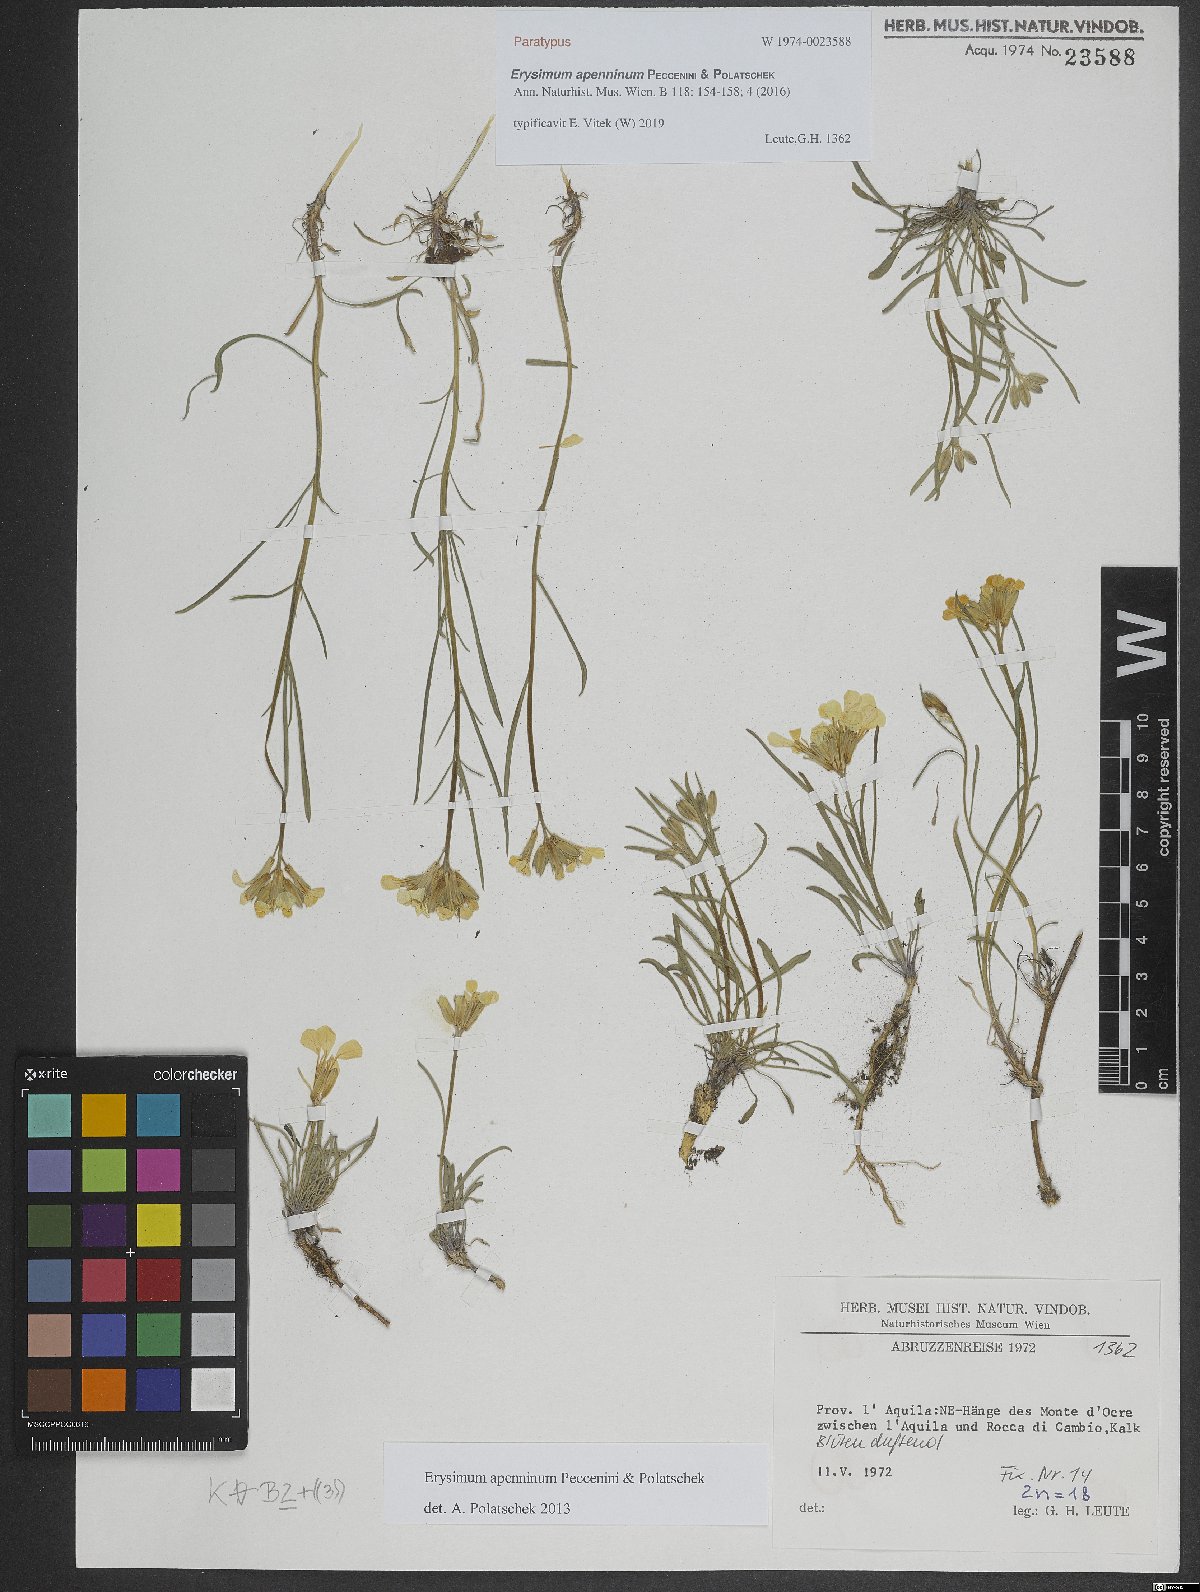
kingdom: Plantae
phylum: Tracheophyta
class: Magnoliopsida
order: Brassicales
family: Brassicaceae
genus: Erysimum
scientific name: Erysimum apenninum
